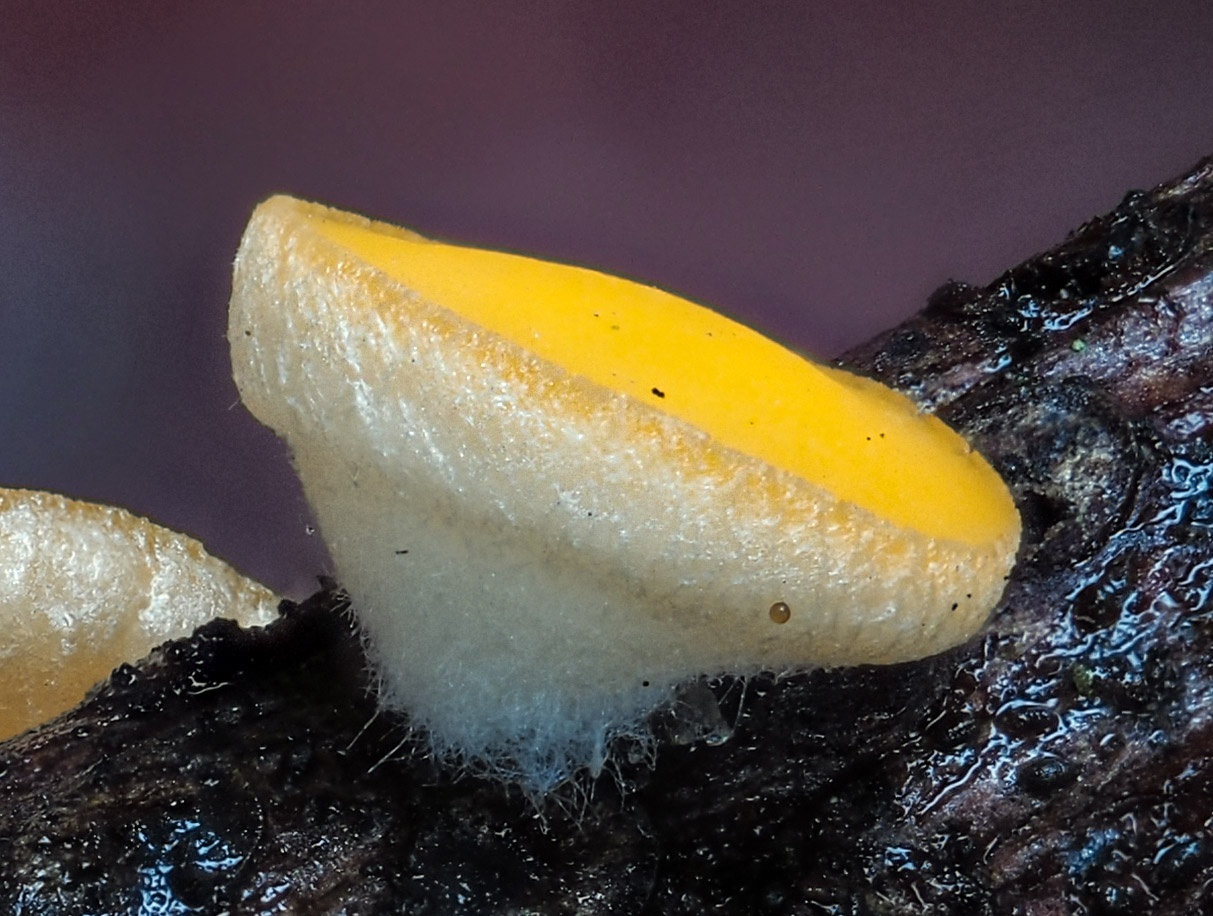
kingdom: Fungi
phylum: Ascomycota
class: Pezizomycetes
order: Pezizales
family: Sarcoscyphaceae
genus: Pithya
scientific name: Pithya vulgaris
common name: stor dukatbæger
